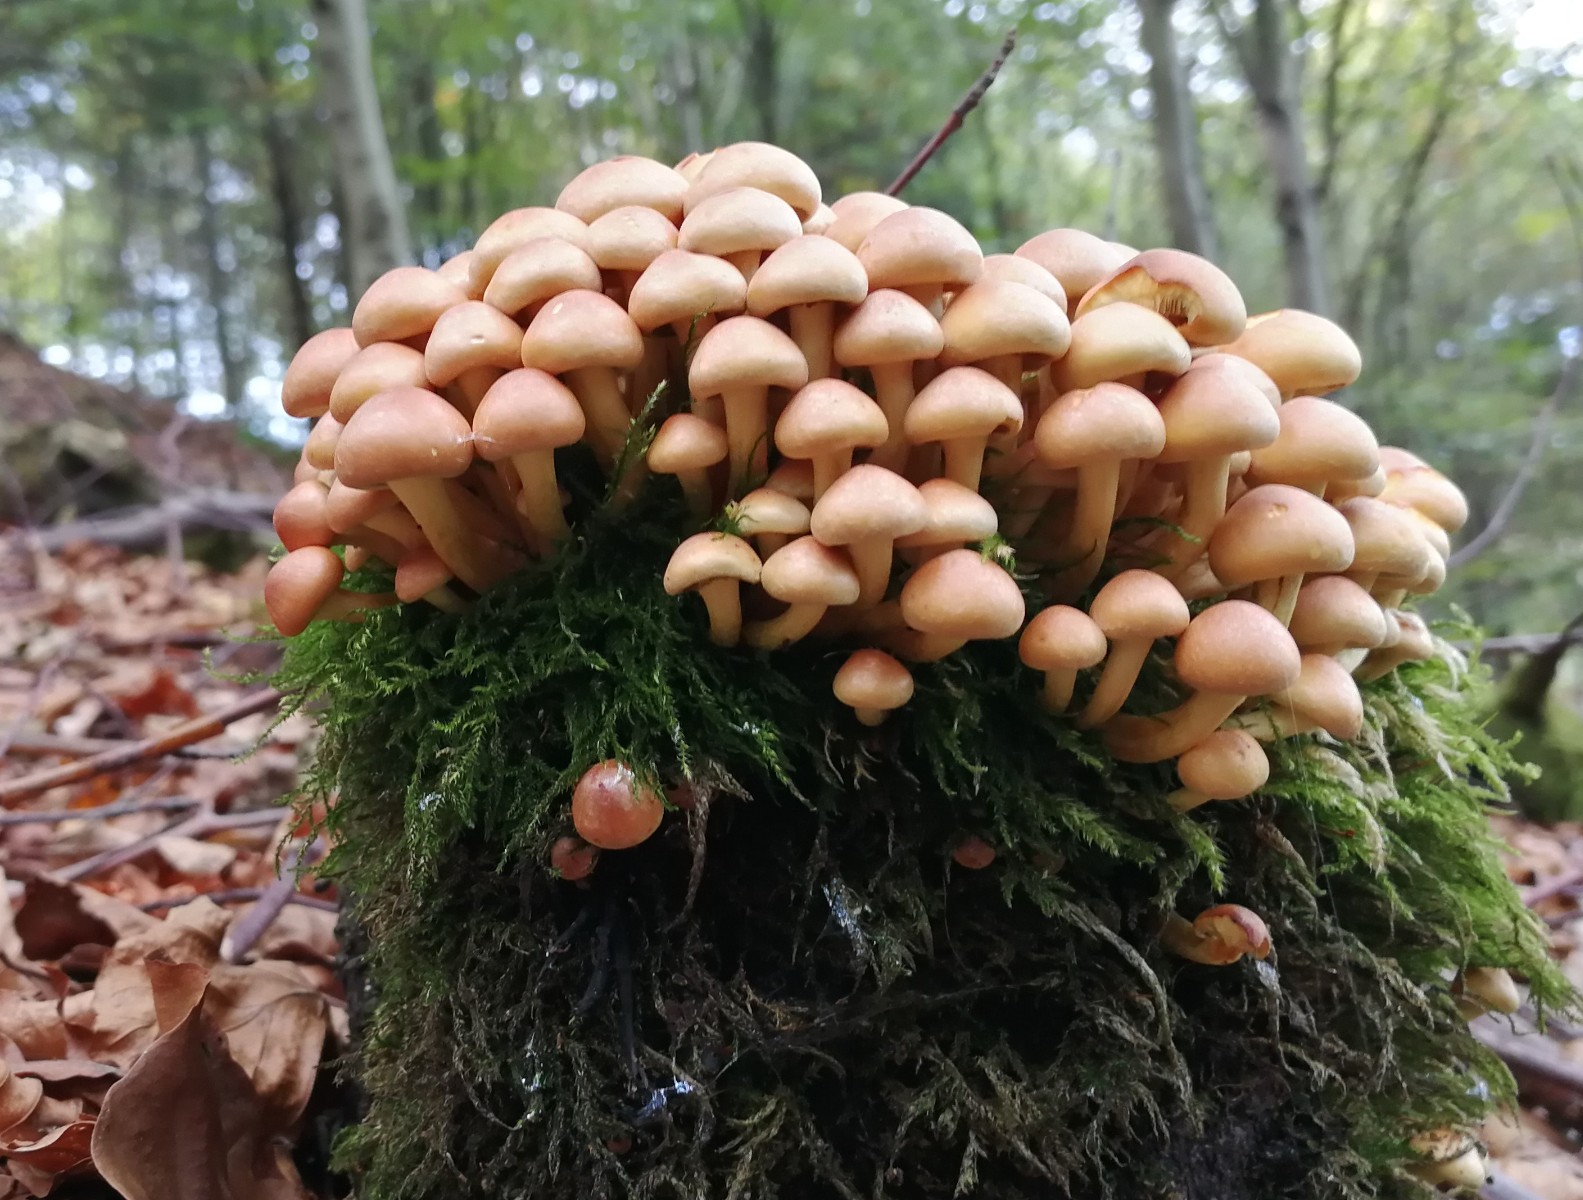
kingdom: Fungi
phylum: Basidiomycota
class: Agaricomycetes
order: Agaricales
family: Strophariaceae
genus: Hypholoma
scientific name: Hypholoma
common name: svovlhat
